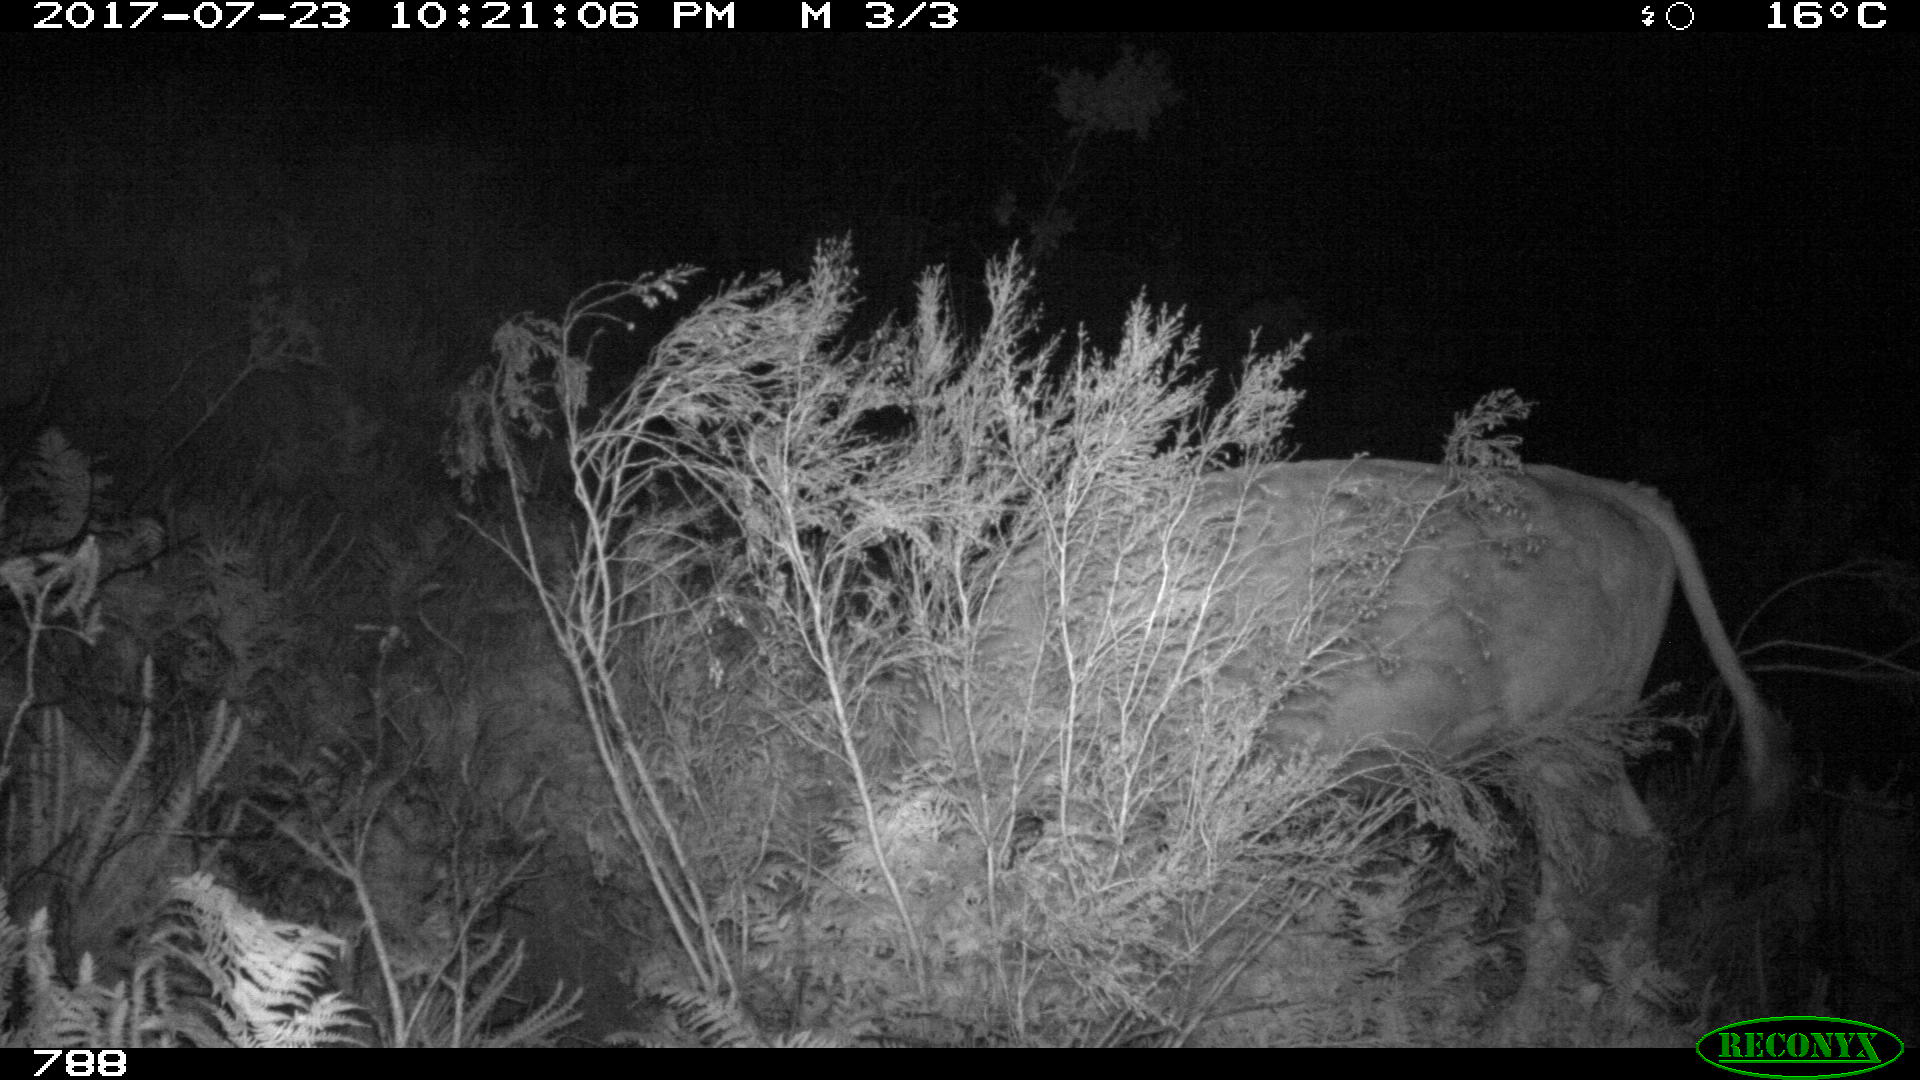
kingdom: Animalia
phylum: Chordata
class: Mammalia
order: Artiodactyla
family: Bovidae
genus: Bos
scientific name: Bos taurus
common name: Domesticated cattle
